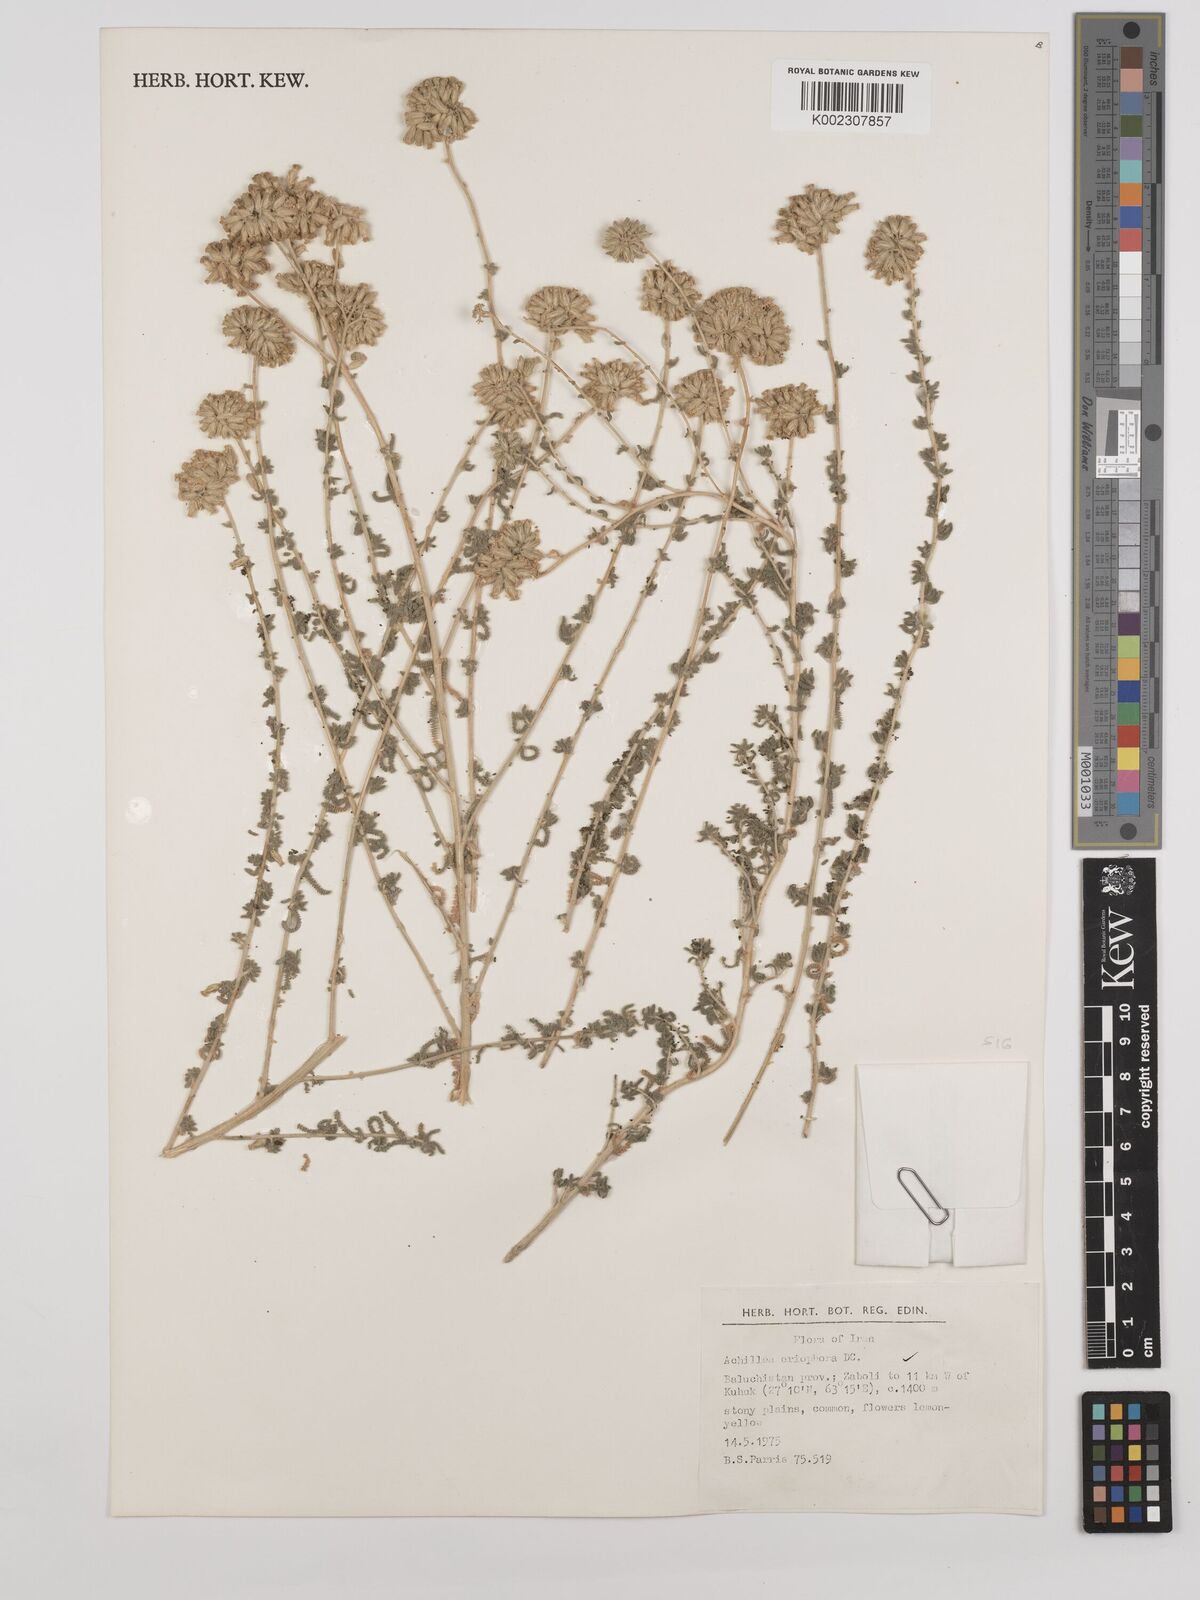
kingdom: Plantae
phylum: Tracheophyta
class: Magnoliopsida
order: Asterales
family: Asteraceae
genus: Achillea
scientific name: Achillea wilhelmsii
